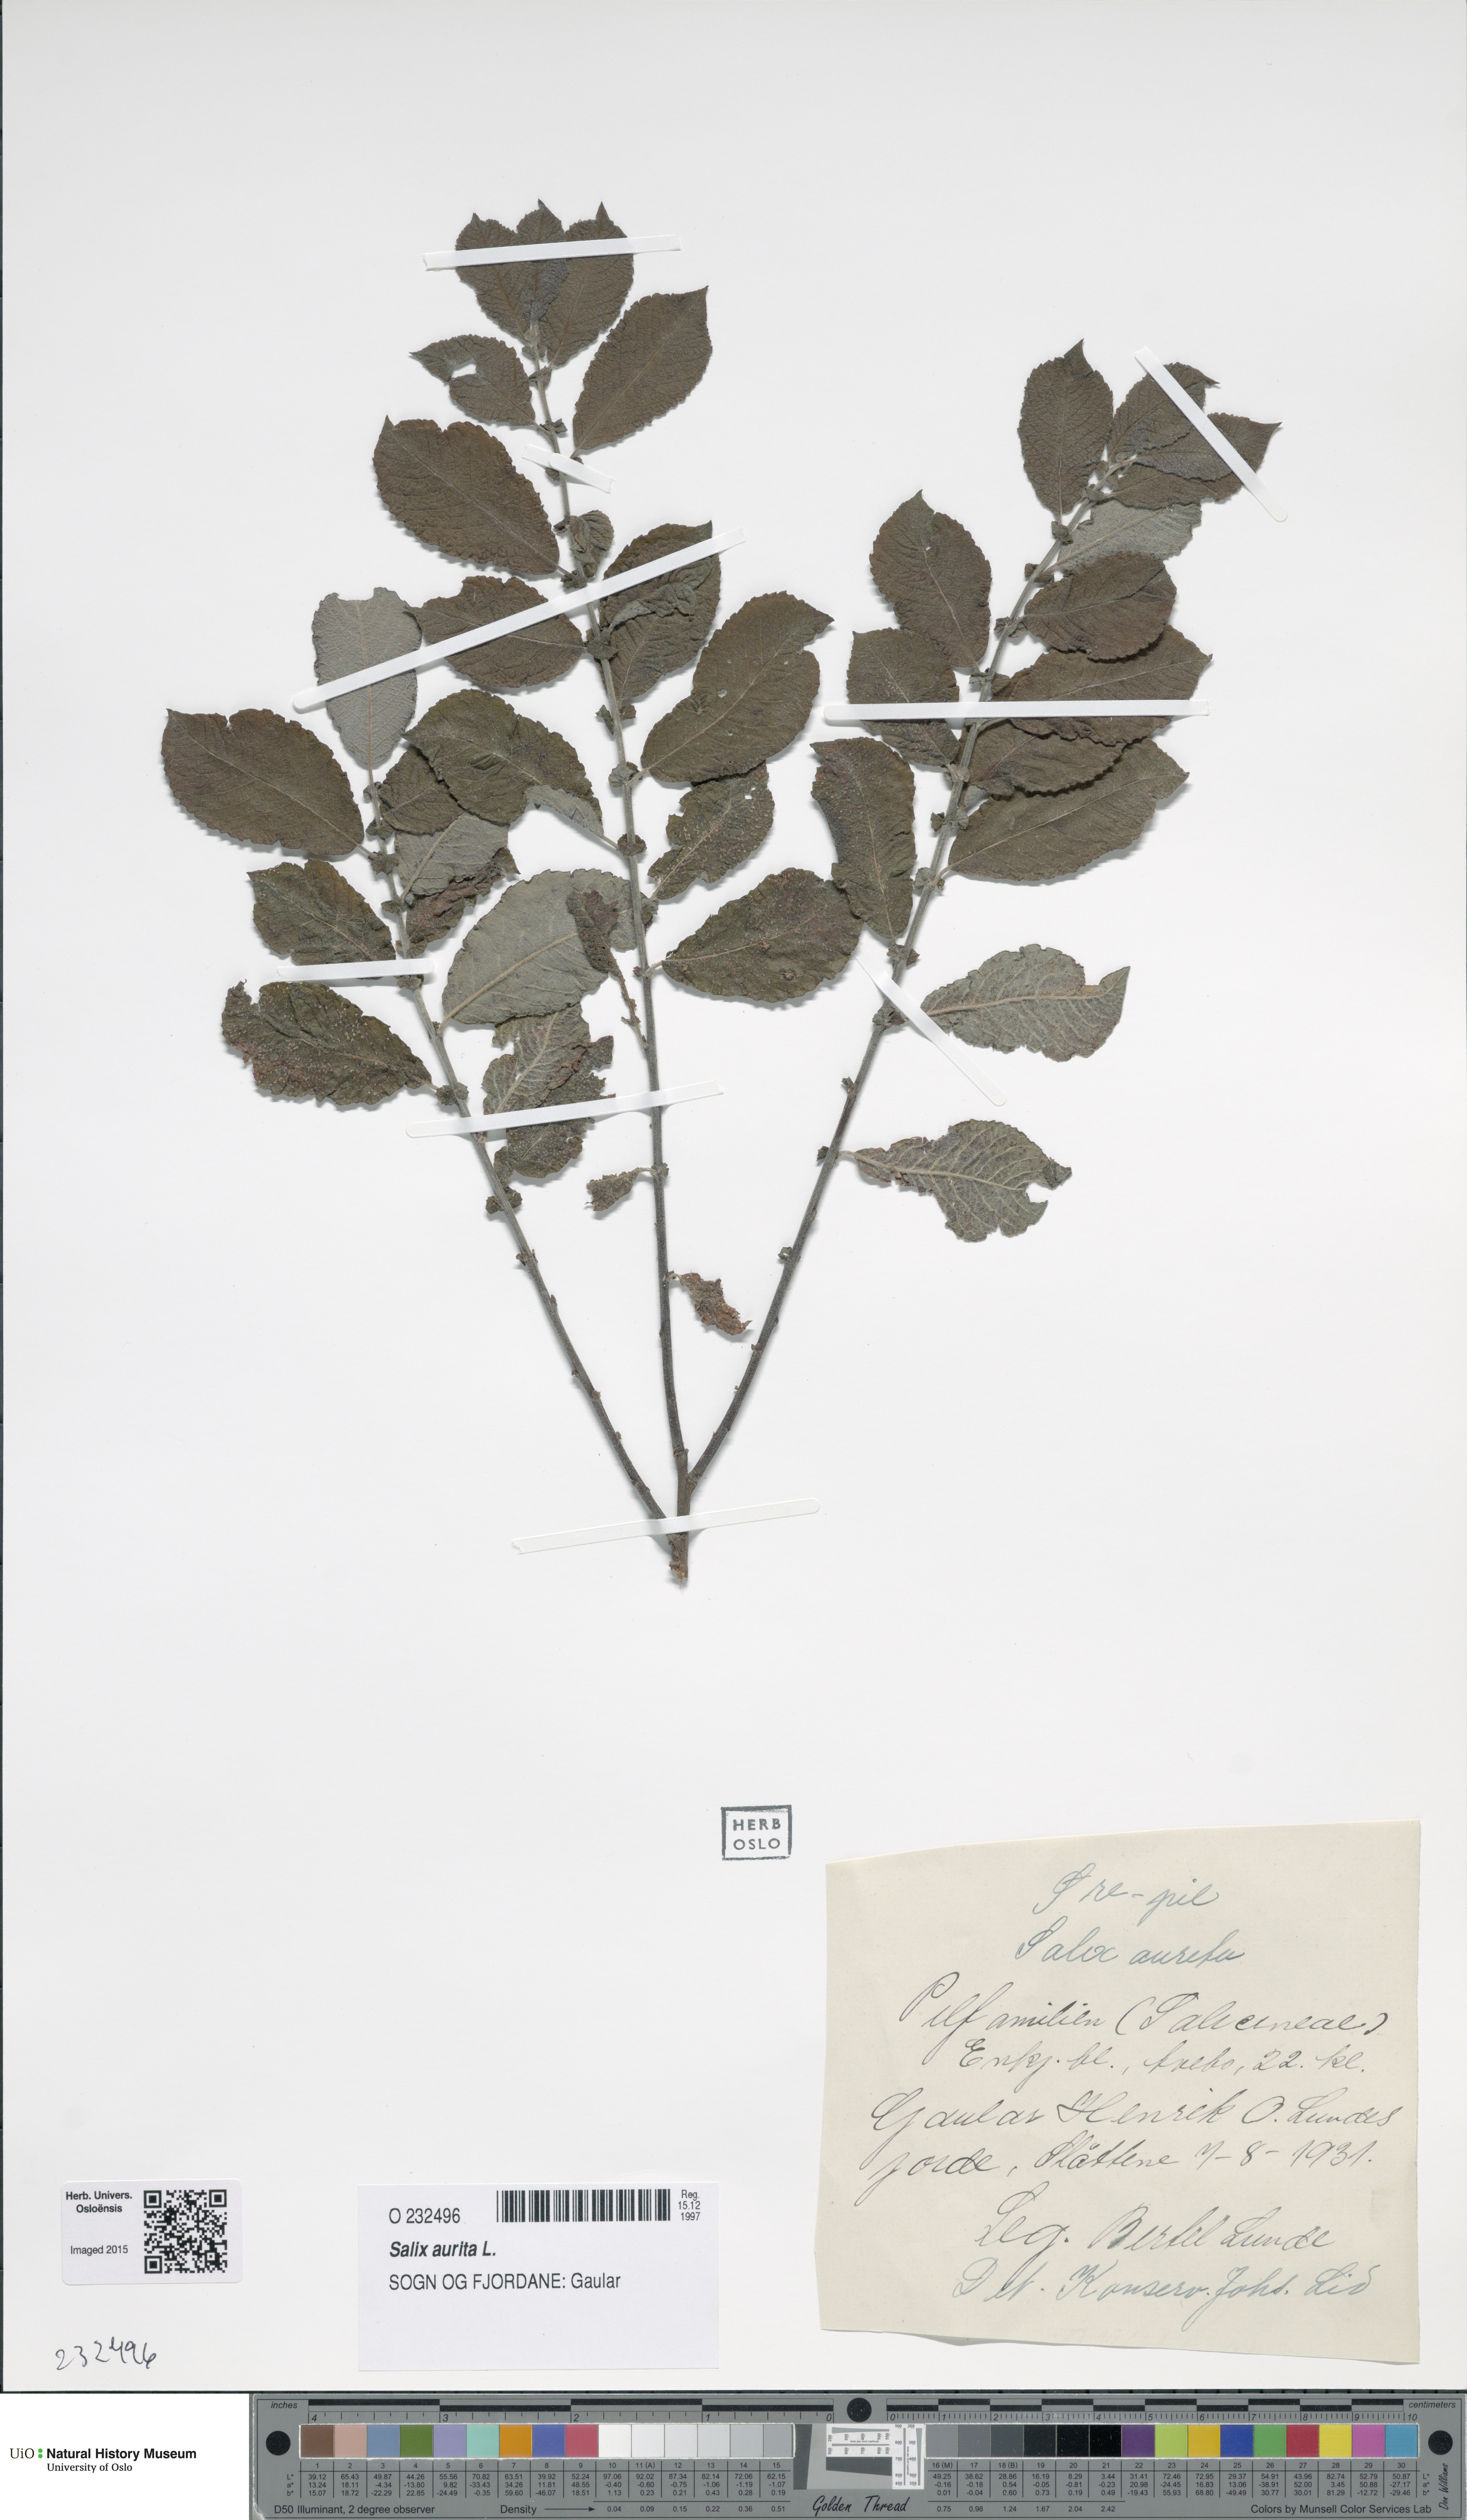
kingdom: Plantae
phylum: Tracheophyta
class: Magnoliopsida
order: Malpighiales
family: Salicaceae
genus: Salix
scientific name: Salix aurita
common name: Eared willow
